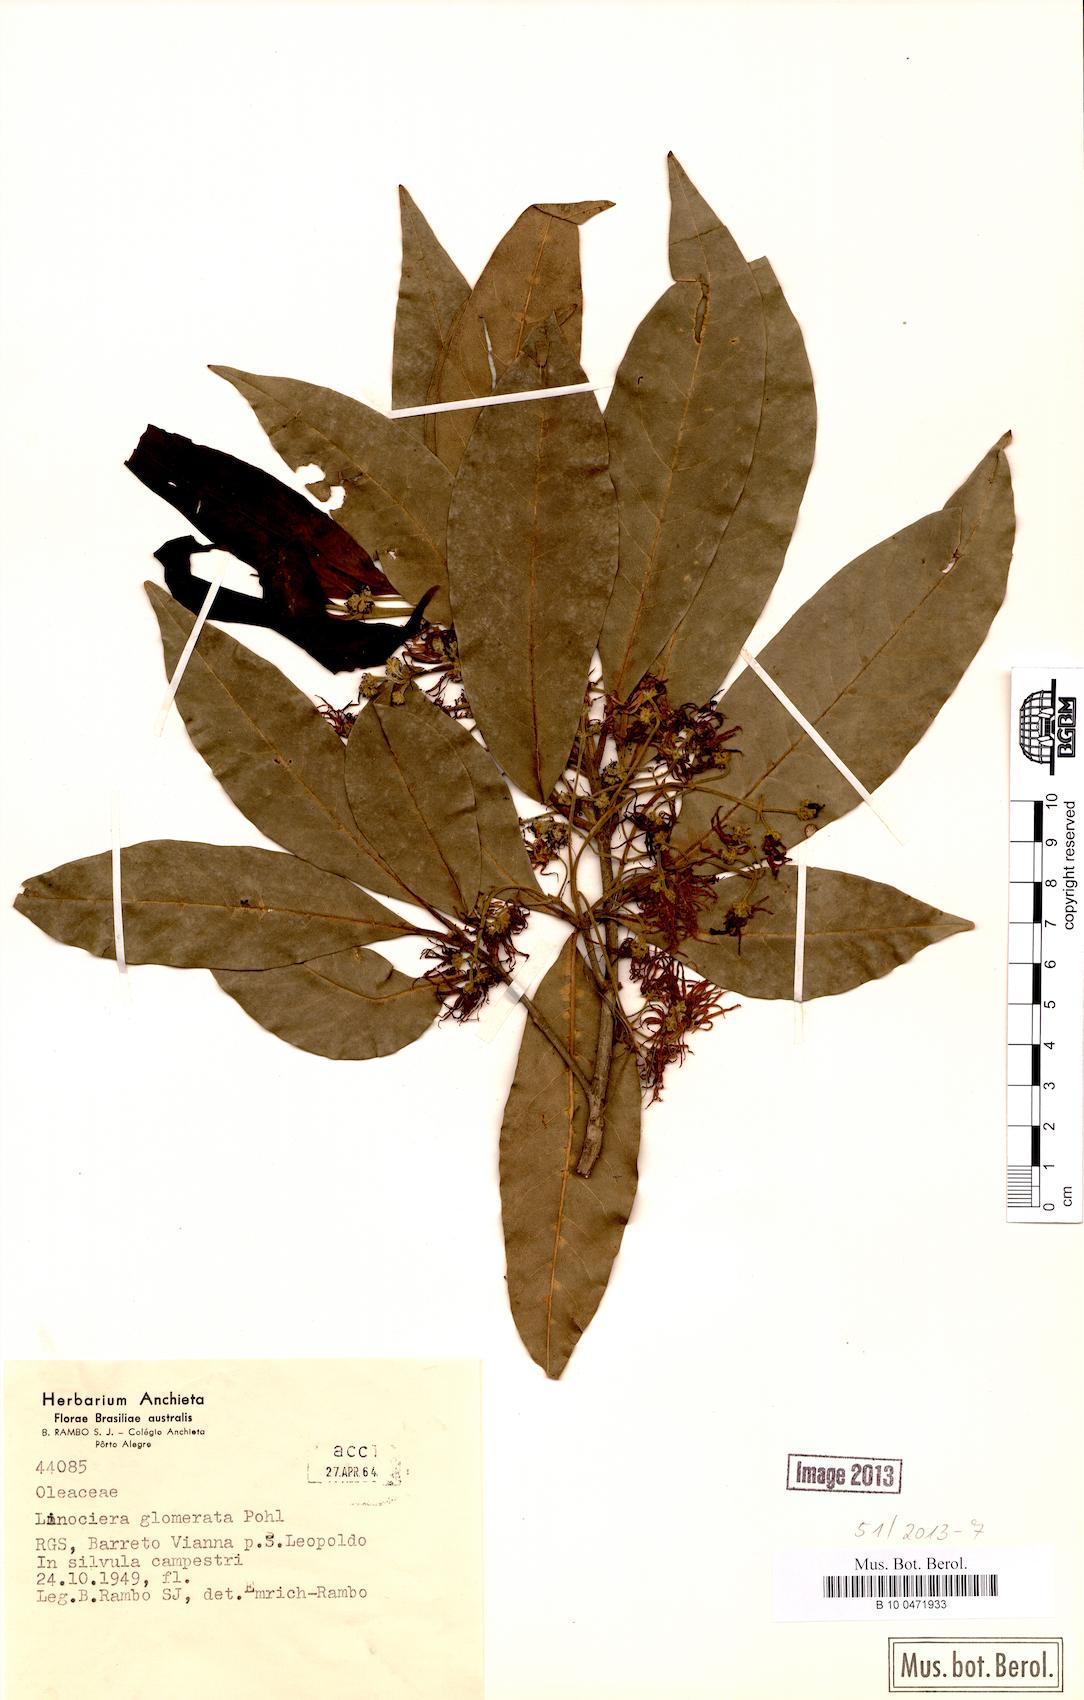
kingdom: Plantae
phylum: Tracheophyta
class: Magnoliopsida
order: Lamiales
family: Oleaceae
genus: Chionanthus
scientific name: Chionanthus trichotomus
